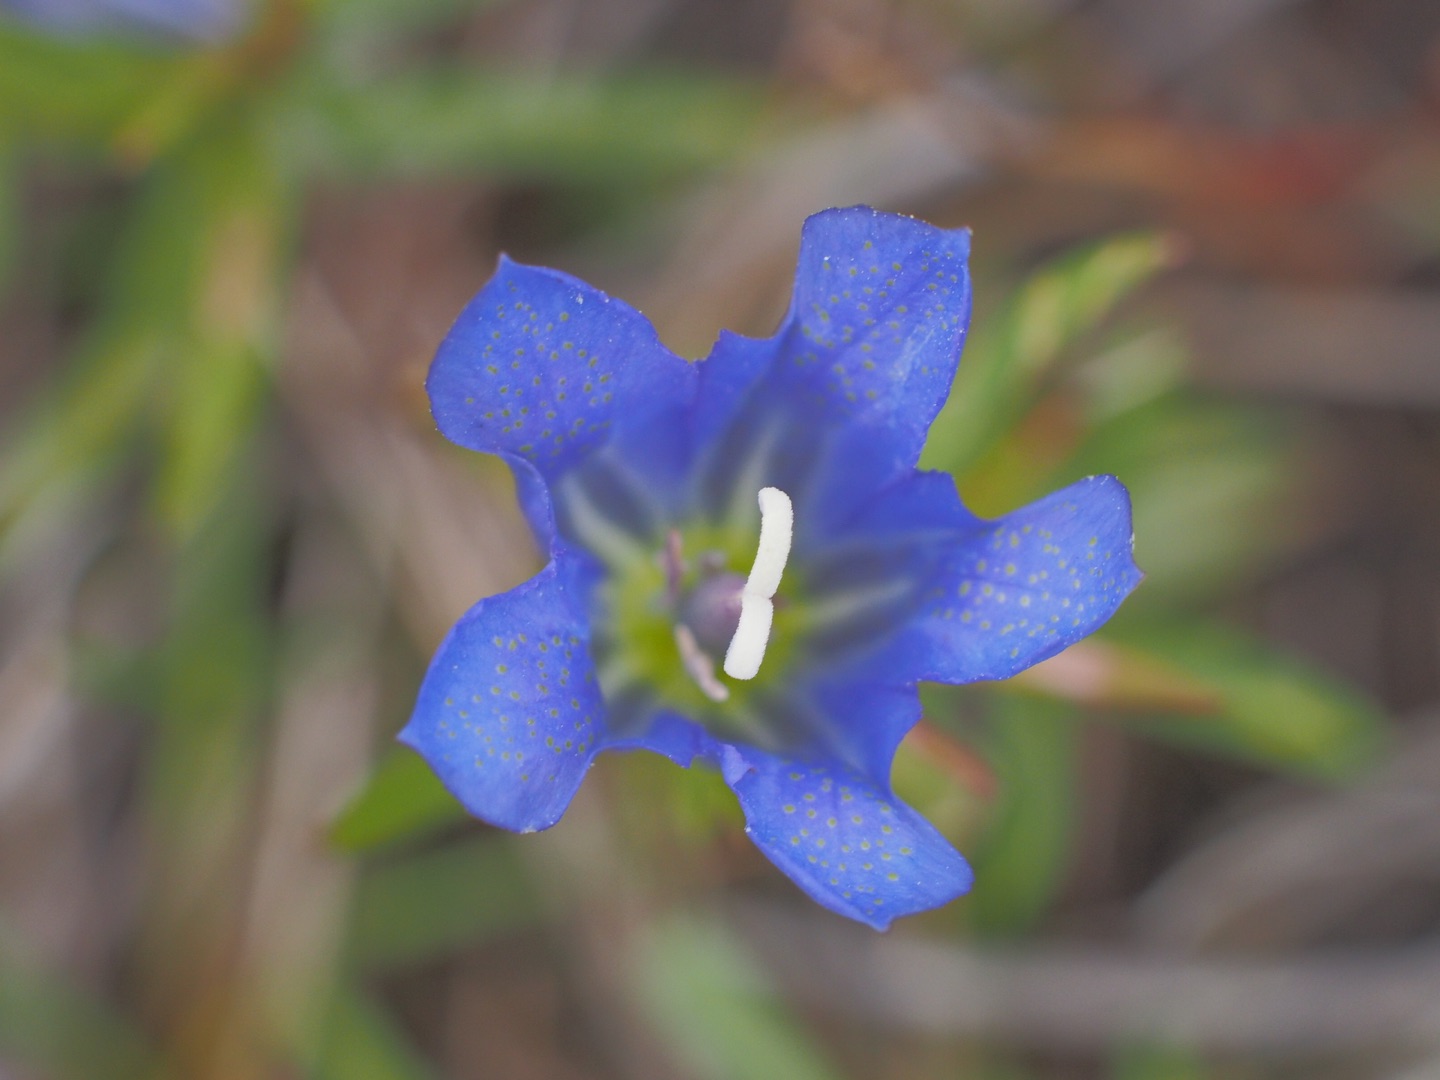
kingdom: Plantae
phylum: Tracheophyta
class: Magnoliopsida
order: Gentianales
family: Gentianaceae
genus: Gentiana
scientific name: Gentiana pneumonanthe
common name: Klokke-ensian
